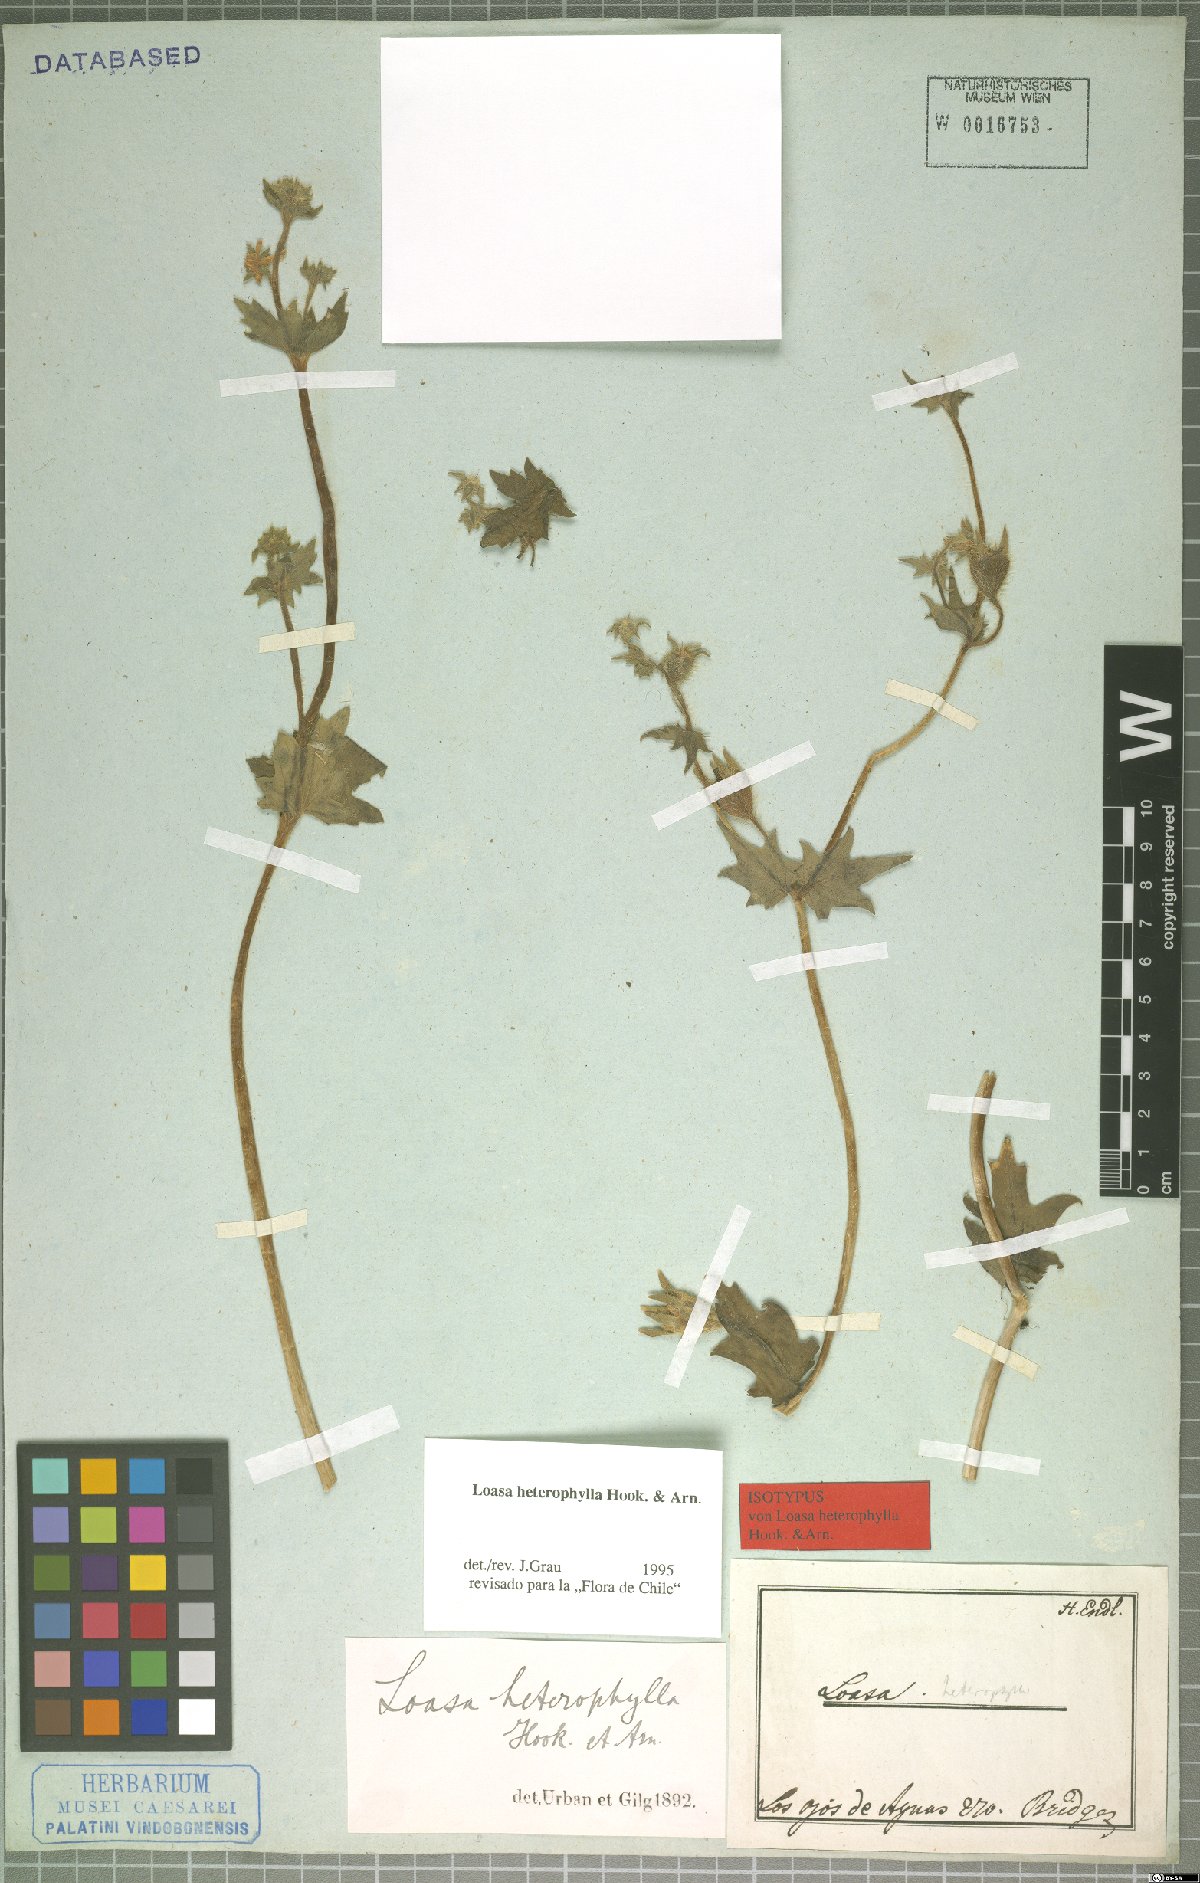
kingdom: Plantae
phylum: Tracheophyta
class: Magnoliopsida
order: Cornales
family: Loasaceae
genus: Loasa
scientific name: Loasa heterophylla
